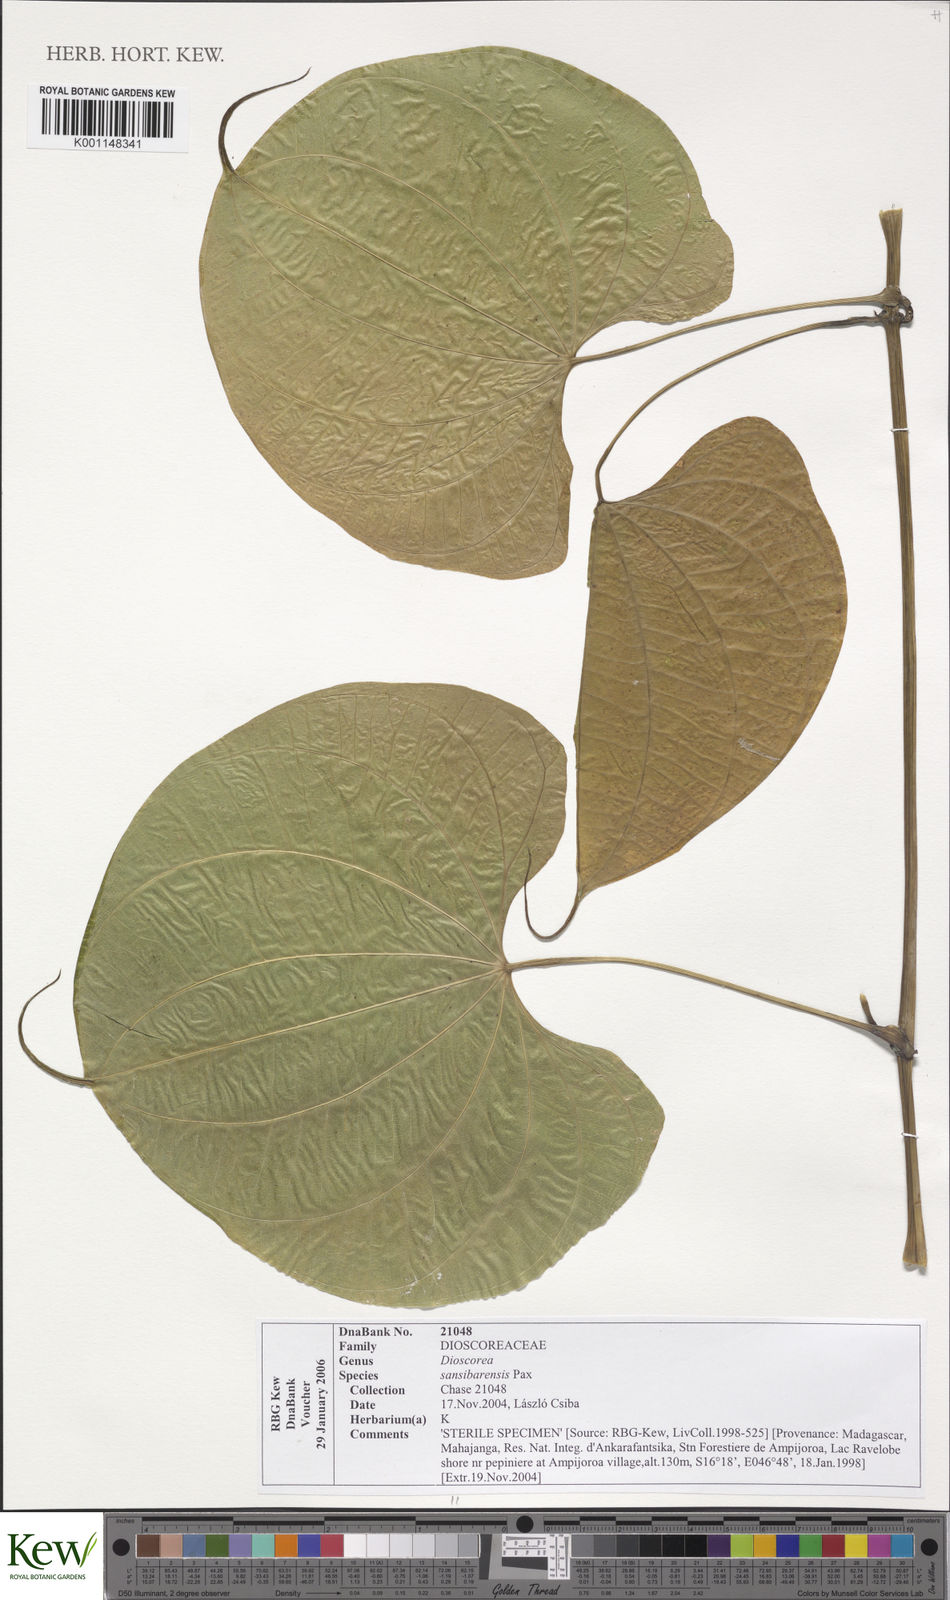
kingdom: Plantae
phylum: Tracheophyta
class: Liliopsida
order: Dioscoreales
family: Dioscoreaceae
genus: Dioscorea
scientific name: Dioscorea sansibarensis
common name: Zanzibar yam
